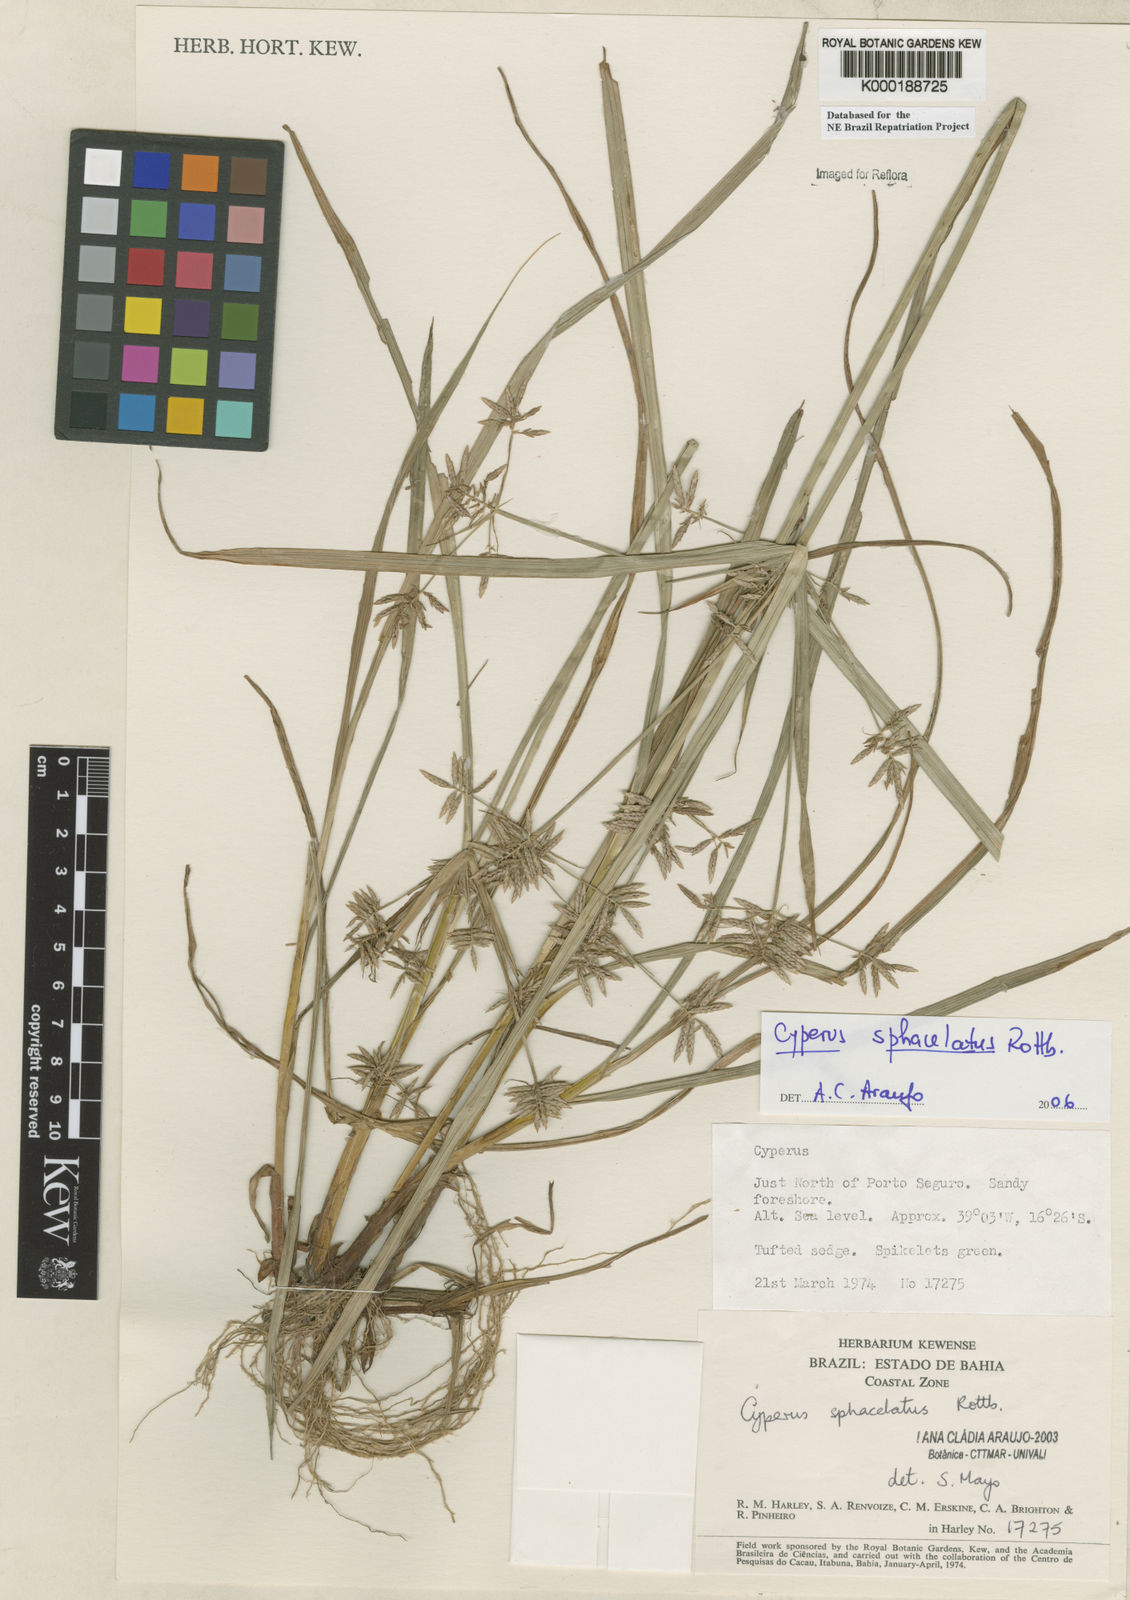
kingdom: Plantae
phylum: Tracheophyta
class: Liliopsida
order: Poales
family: Cyperaceae
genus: Cyperus
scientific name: Cyperus sphacelatus
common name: Roadside flatsedge
